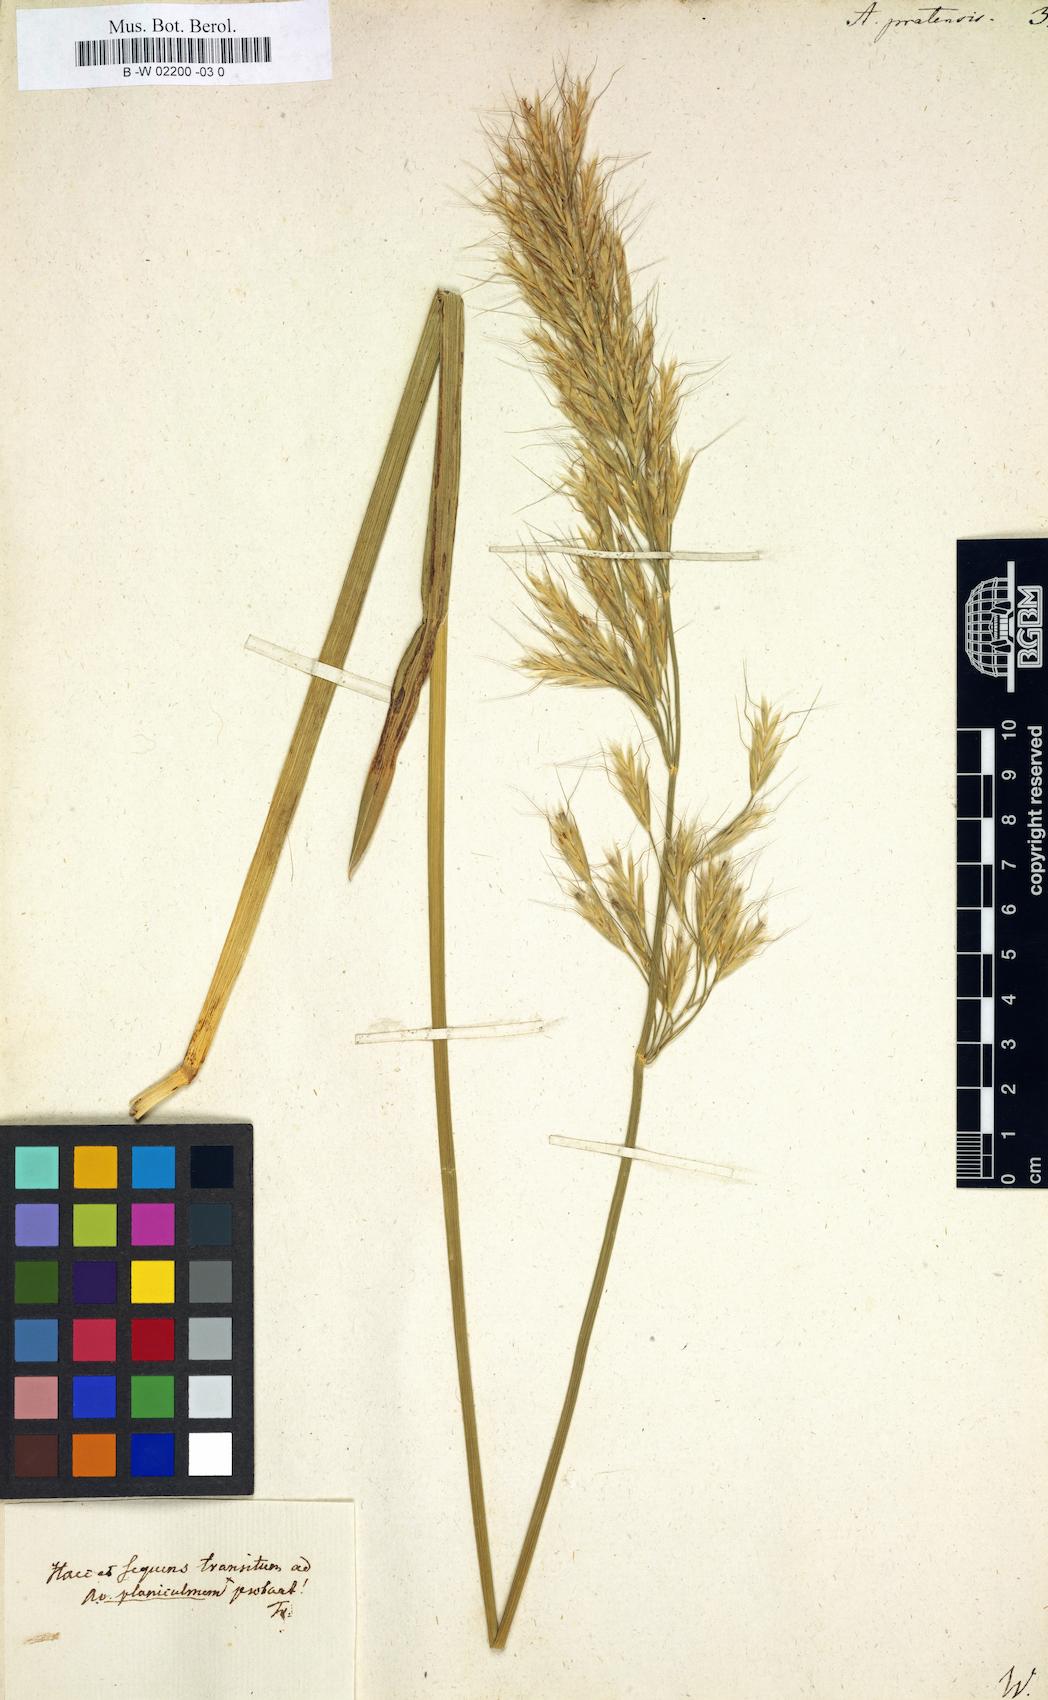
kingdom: Plantae
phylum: Tracheophyta
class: Liliopsida
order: Poales
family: Poaceae
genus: Helictochloa
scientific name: Helictochloa pratensis
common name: Meadow oat grass
